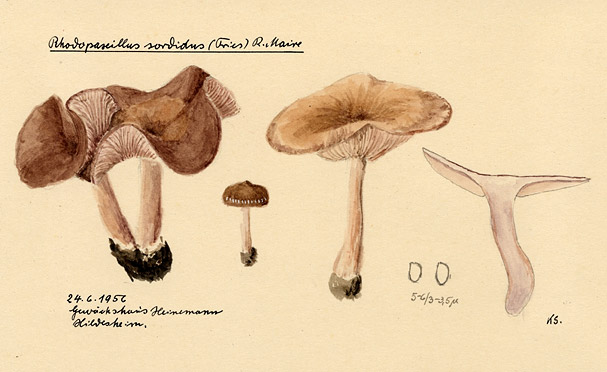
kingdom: Fungi
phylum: Basidiomycota
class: Agaricomycetes
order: Agaricales
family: Tricholomataceae
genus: Lepista
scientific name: Lepista sordida
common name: Sordid blewit
